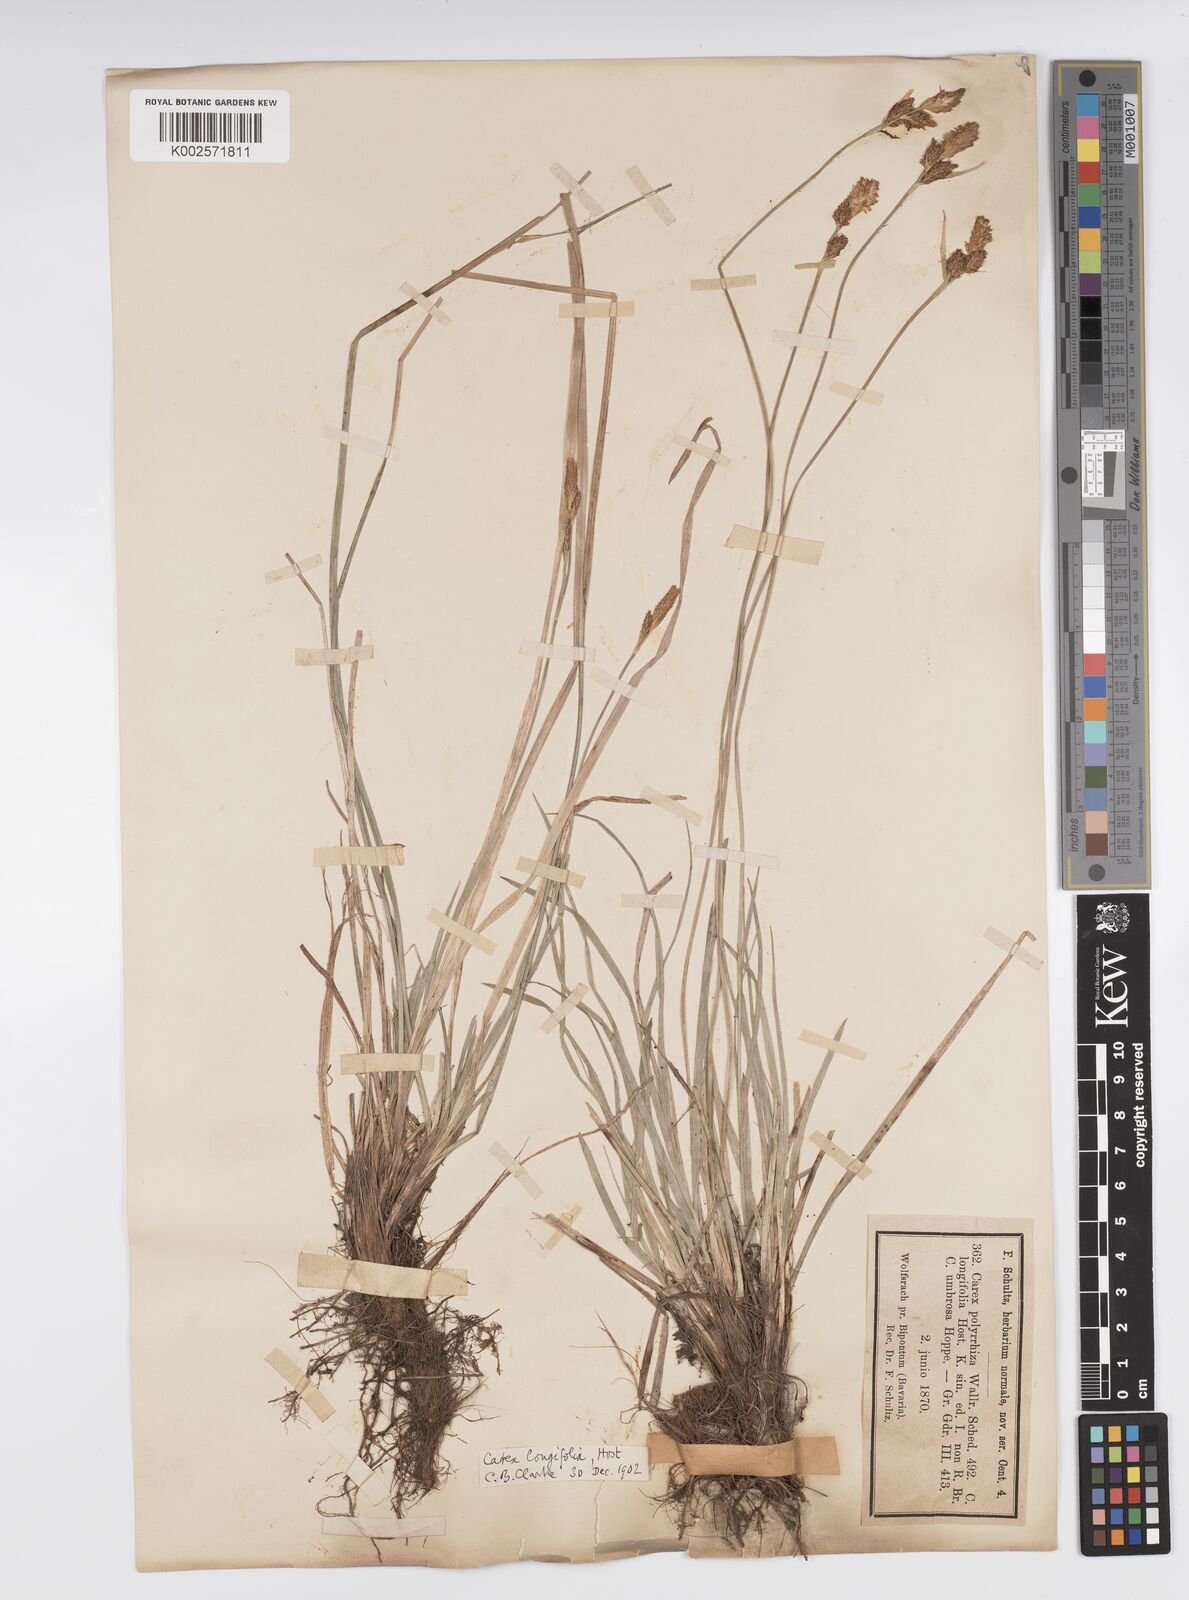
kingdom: Plantae
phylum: Tracheophyta
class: Liliopsida
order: Poales
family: Cyperaceae
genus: Carex
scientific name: Carex umbrosa
